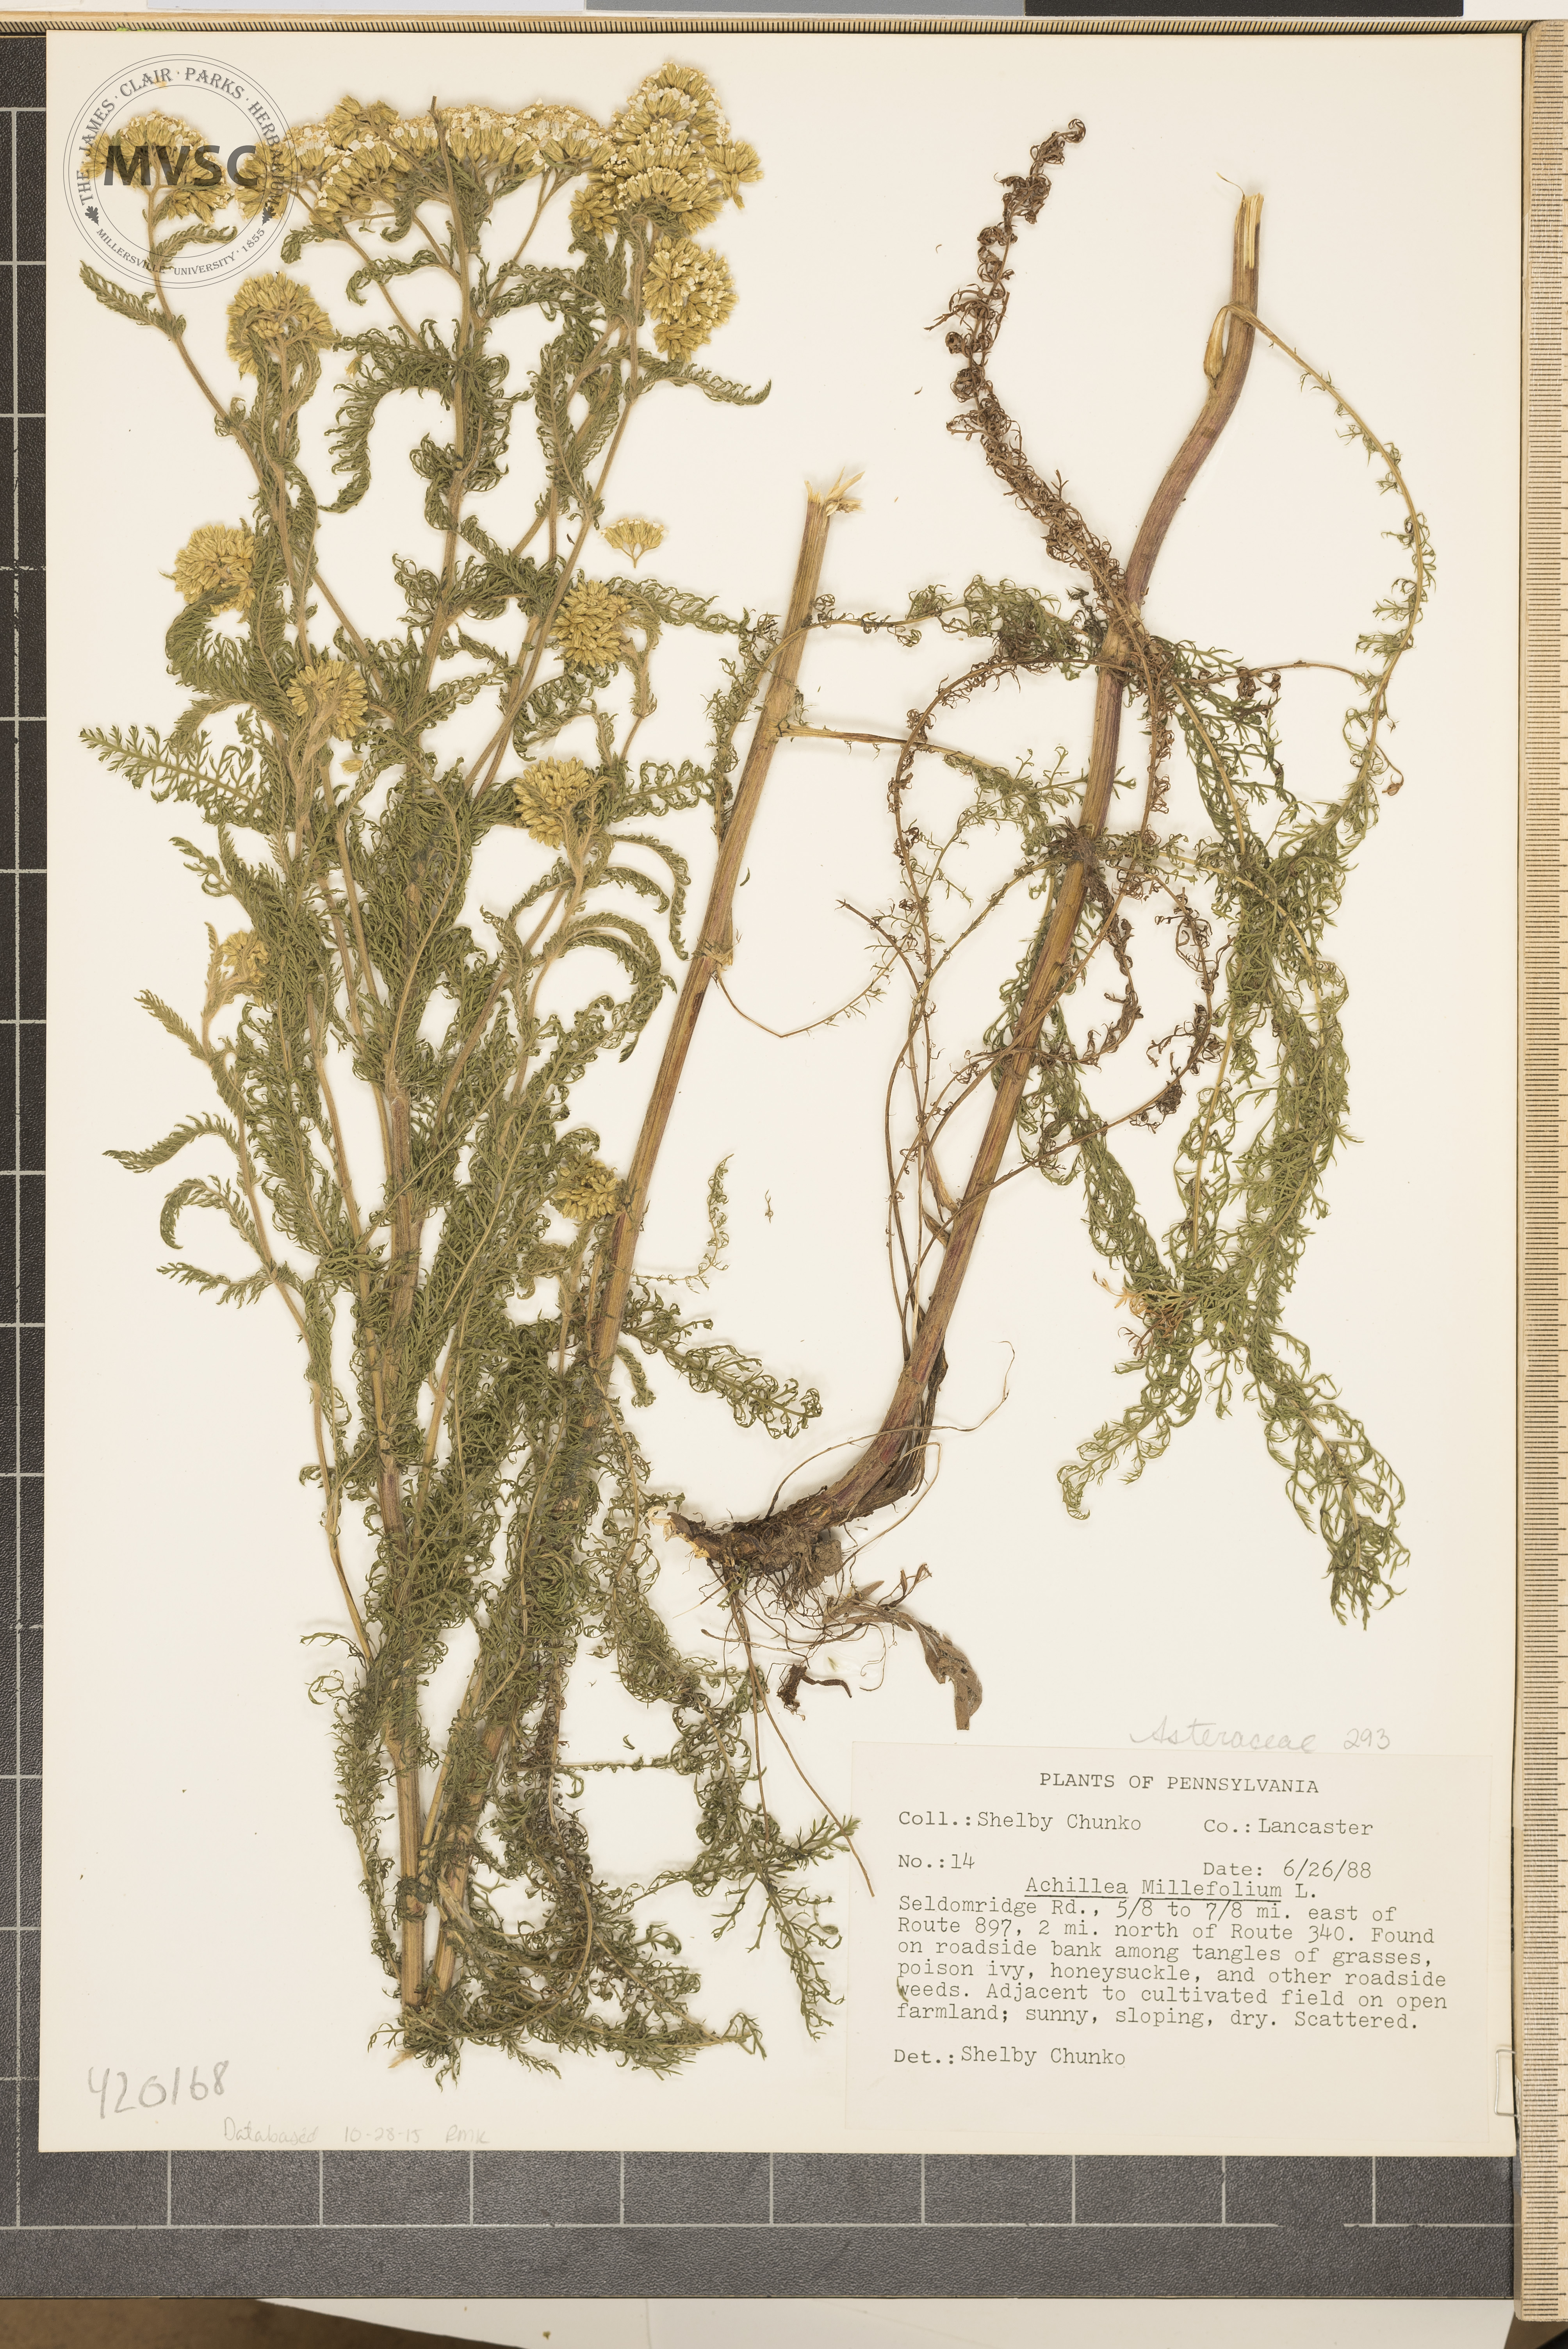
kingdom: Plantae
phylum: Tracheophyta
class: Magnoliopsida
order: Asterales
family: Asteraceae
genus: Achillea
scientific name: Achillea millefolium
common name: yarrow
